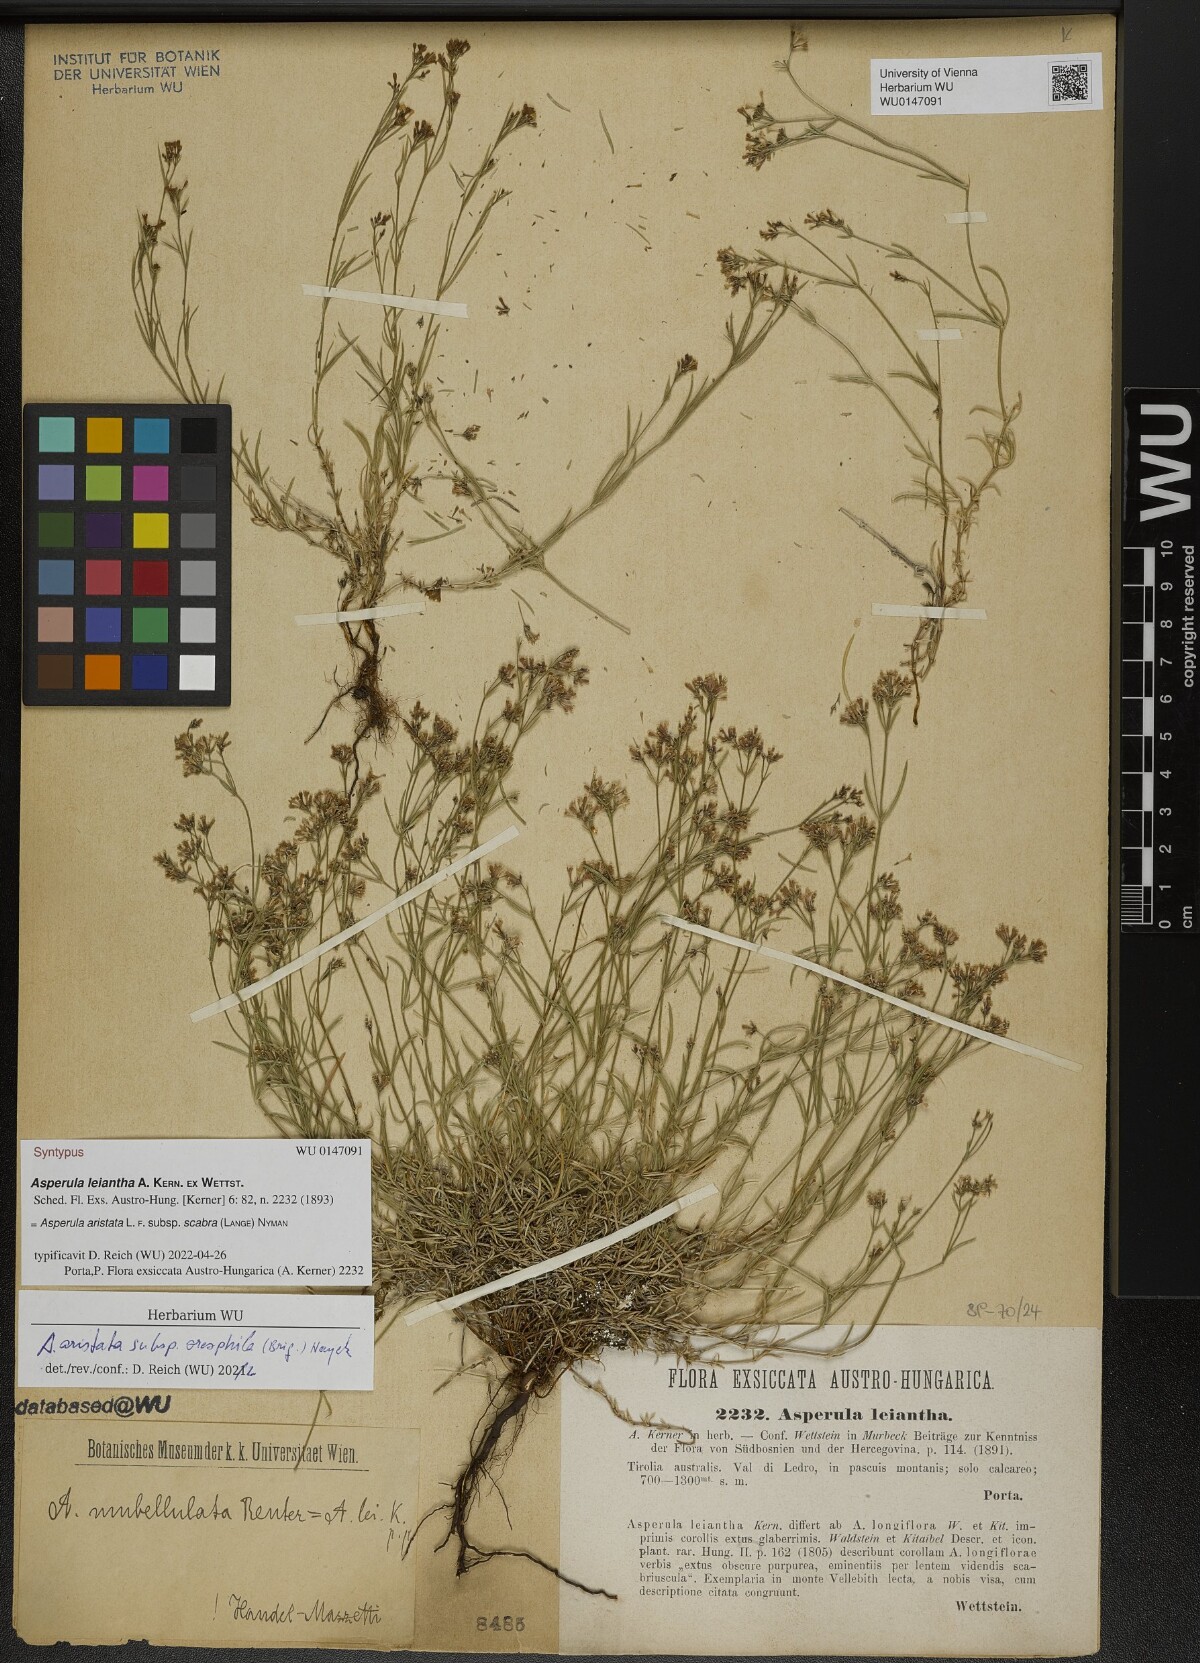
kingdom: Plantae
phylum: Tracheophyta
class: Magnoliopsida
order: Gentianales
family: Rubiaceae
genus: Asperula
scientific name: Asperula
